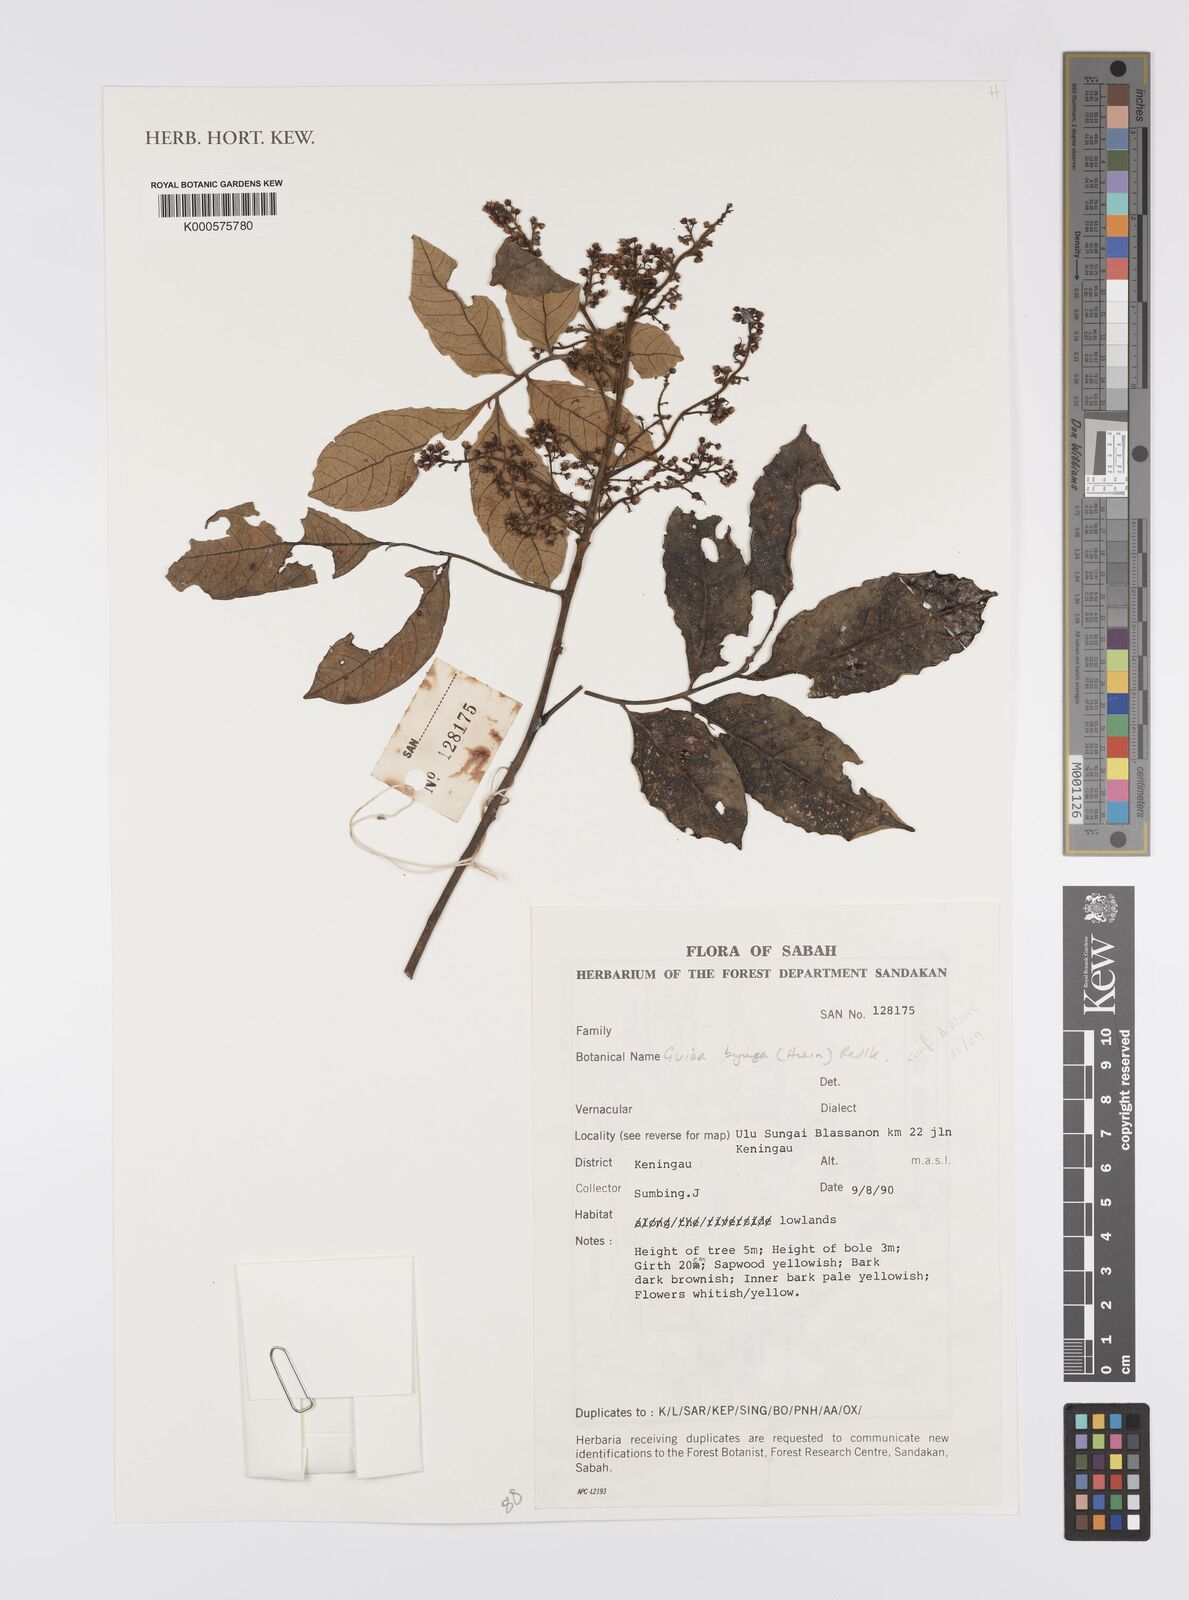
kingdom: Plantae
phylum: Tracheophyta
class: Magnoliopsida
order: Sapindales
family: Sapindaceae
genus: Guioa
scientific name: Guioa bijuga
